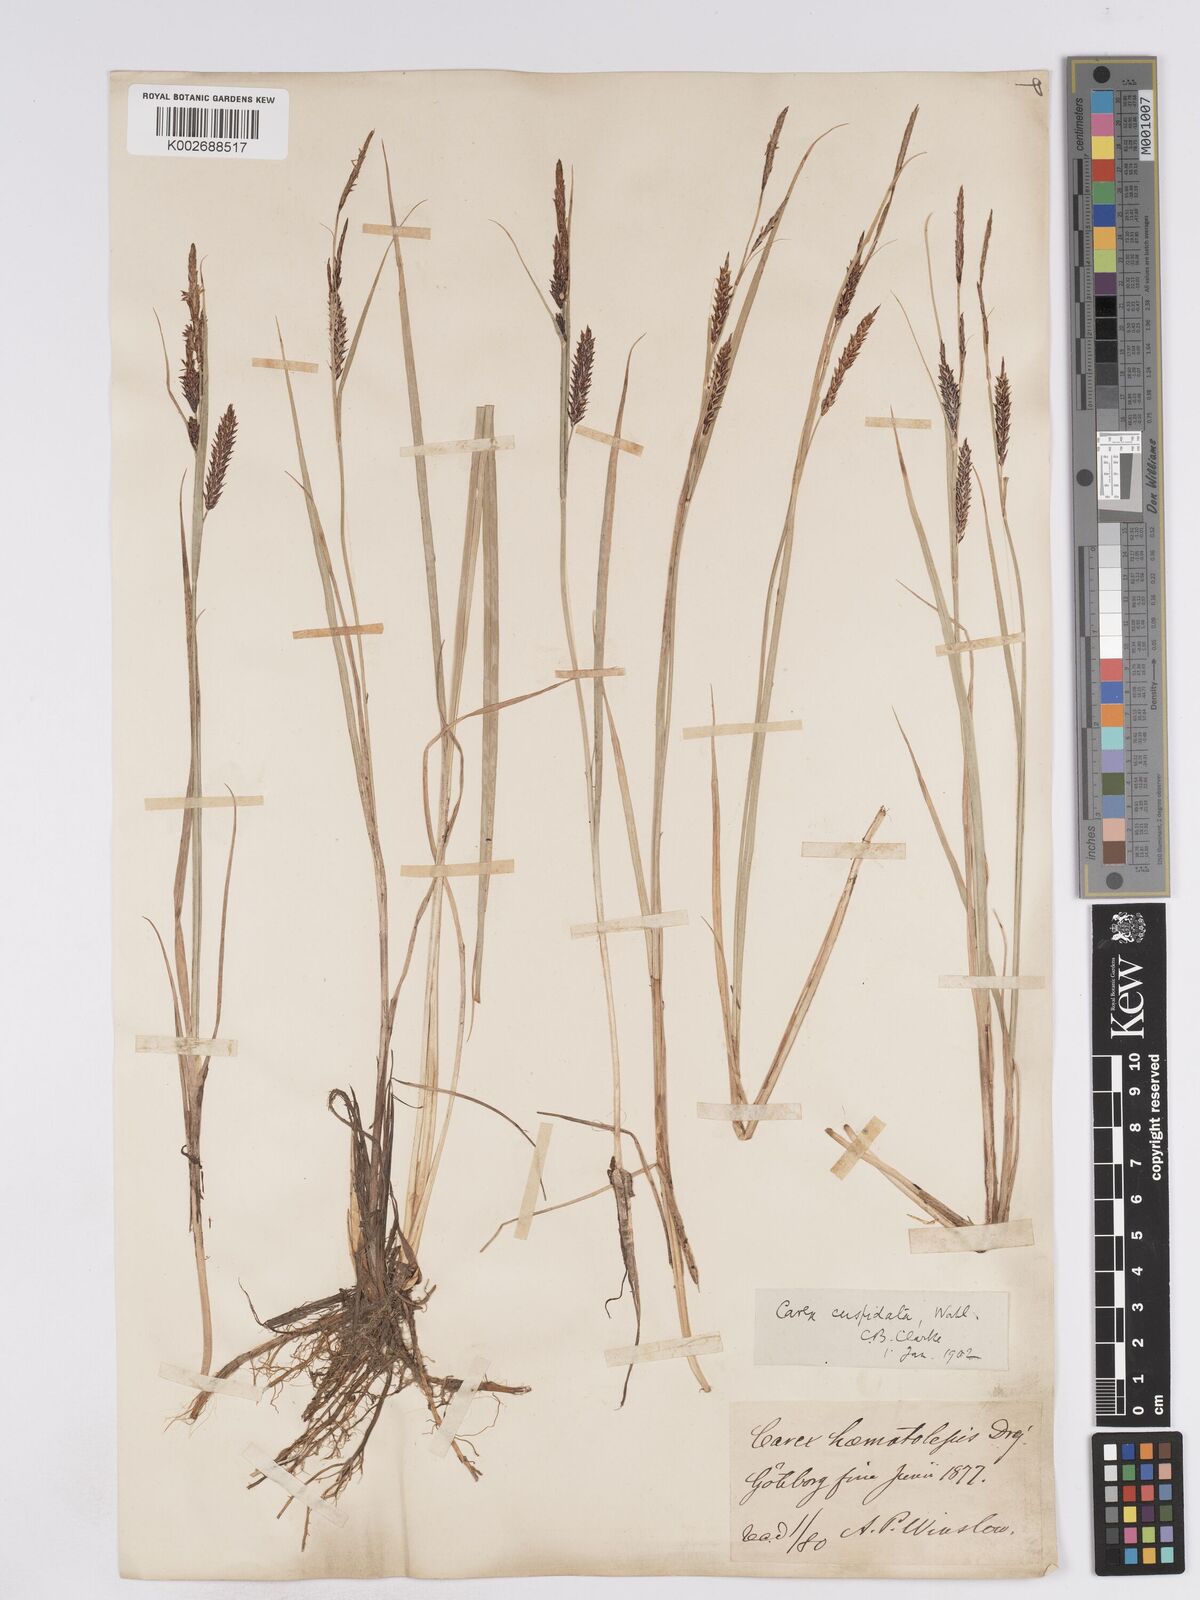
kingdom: Plantae
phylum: Tracheophyta
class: Liliopsida
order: Poales
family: Cyperaceae
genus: Carex
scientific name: Carex recta
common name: Estuarine sedge
